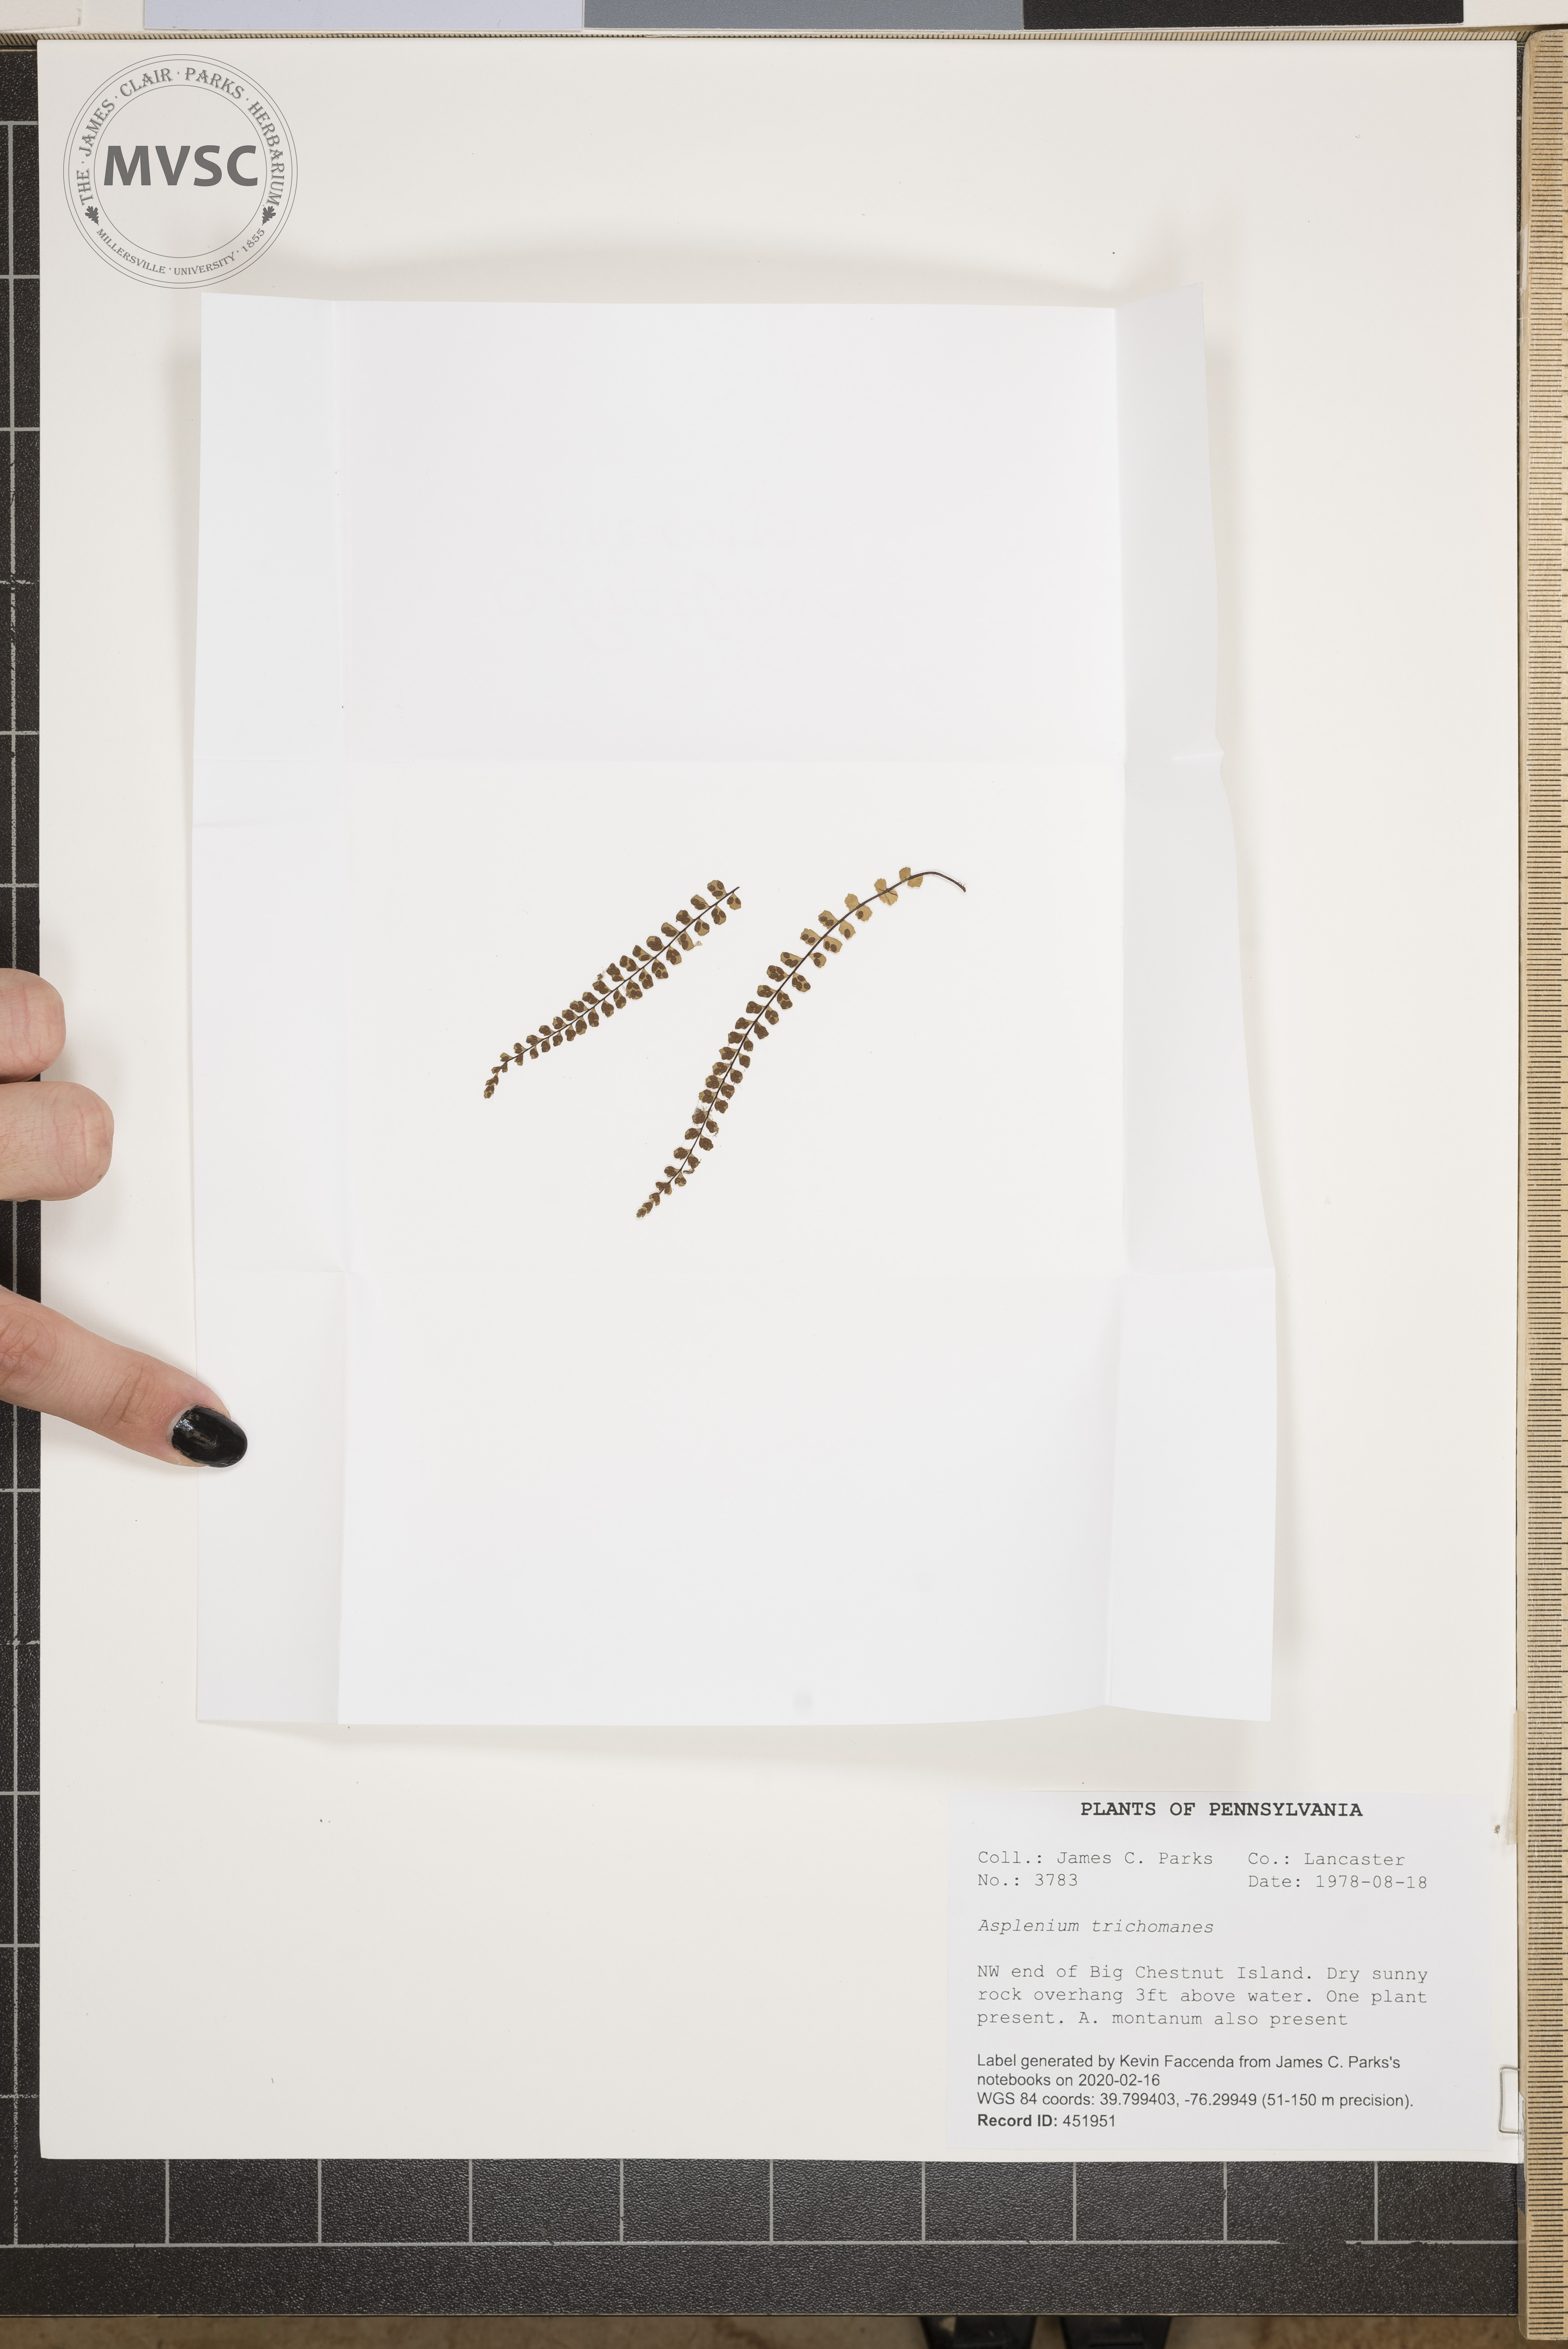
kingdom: Plantae
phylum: Tracheophyta
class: Polypodiopsida
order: Polypodiales
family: Aspleniaceae
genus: Asplenium
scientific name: Asplenium trichomanes
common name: Maidenhair spleenwort
